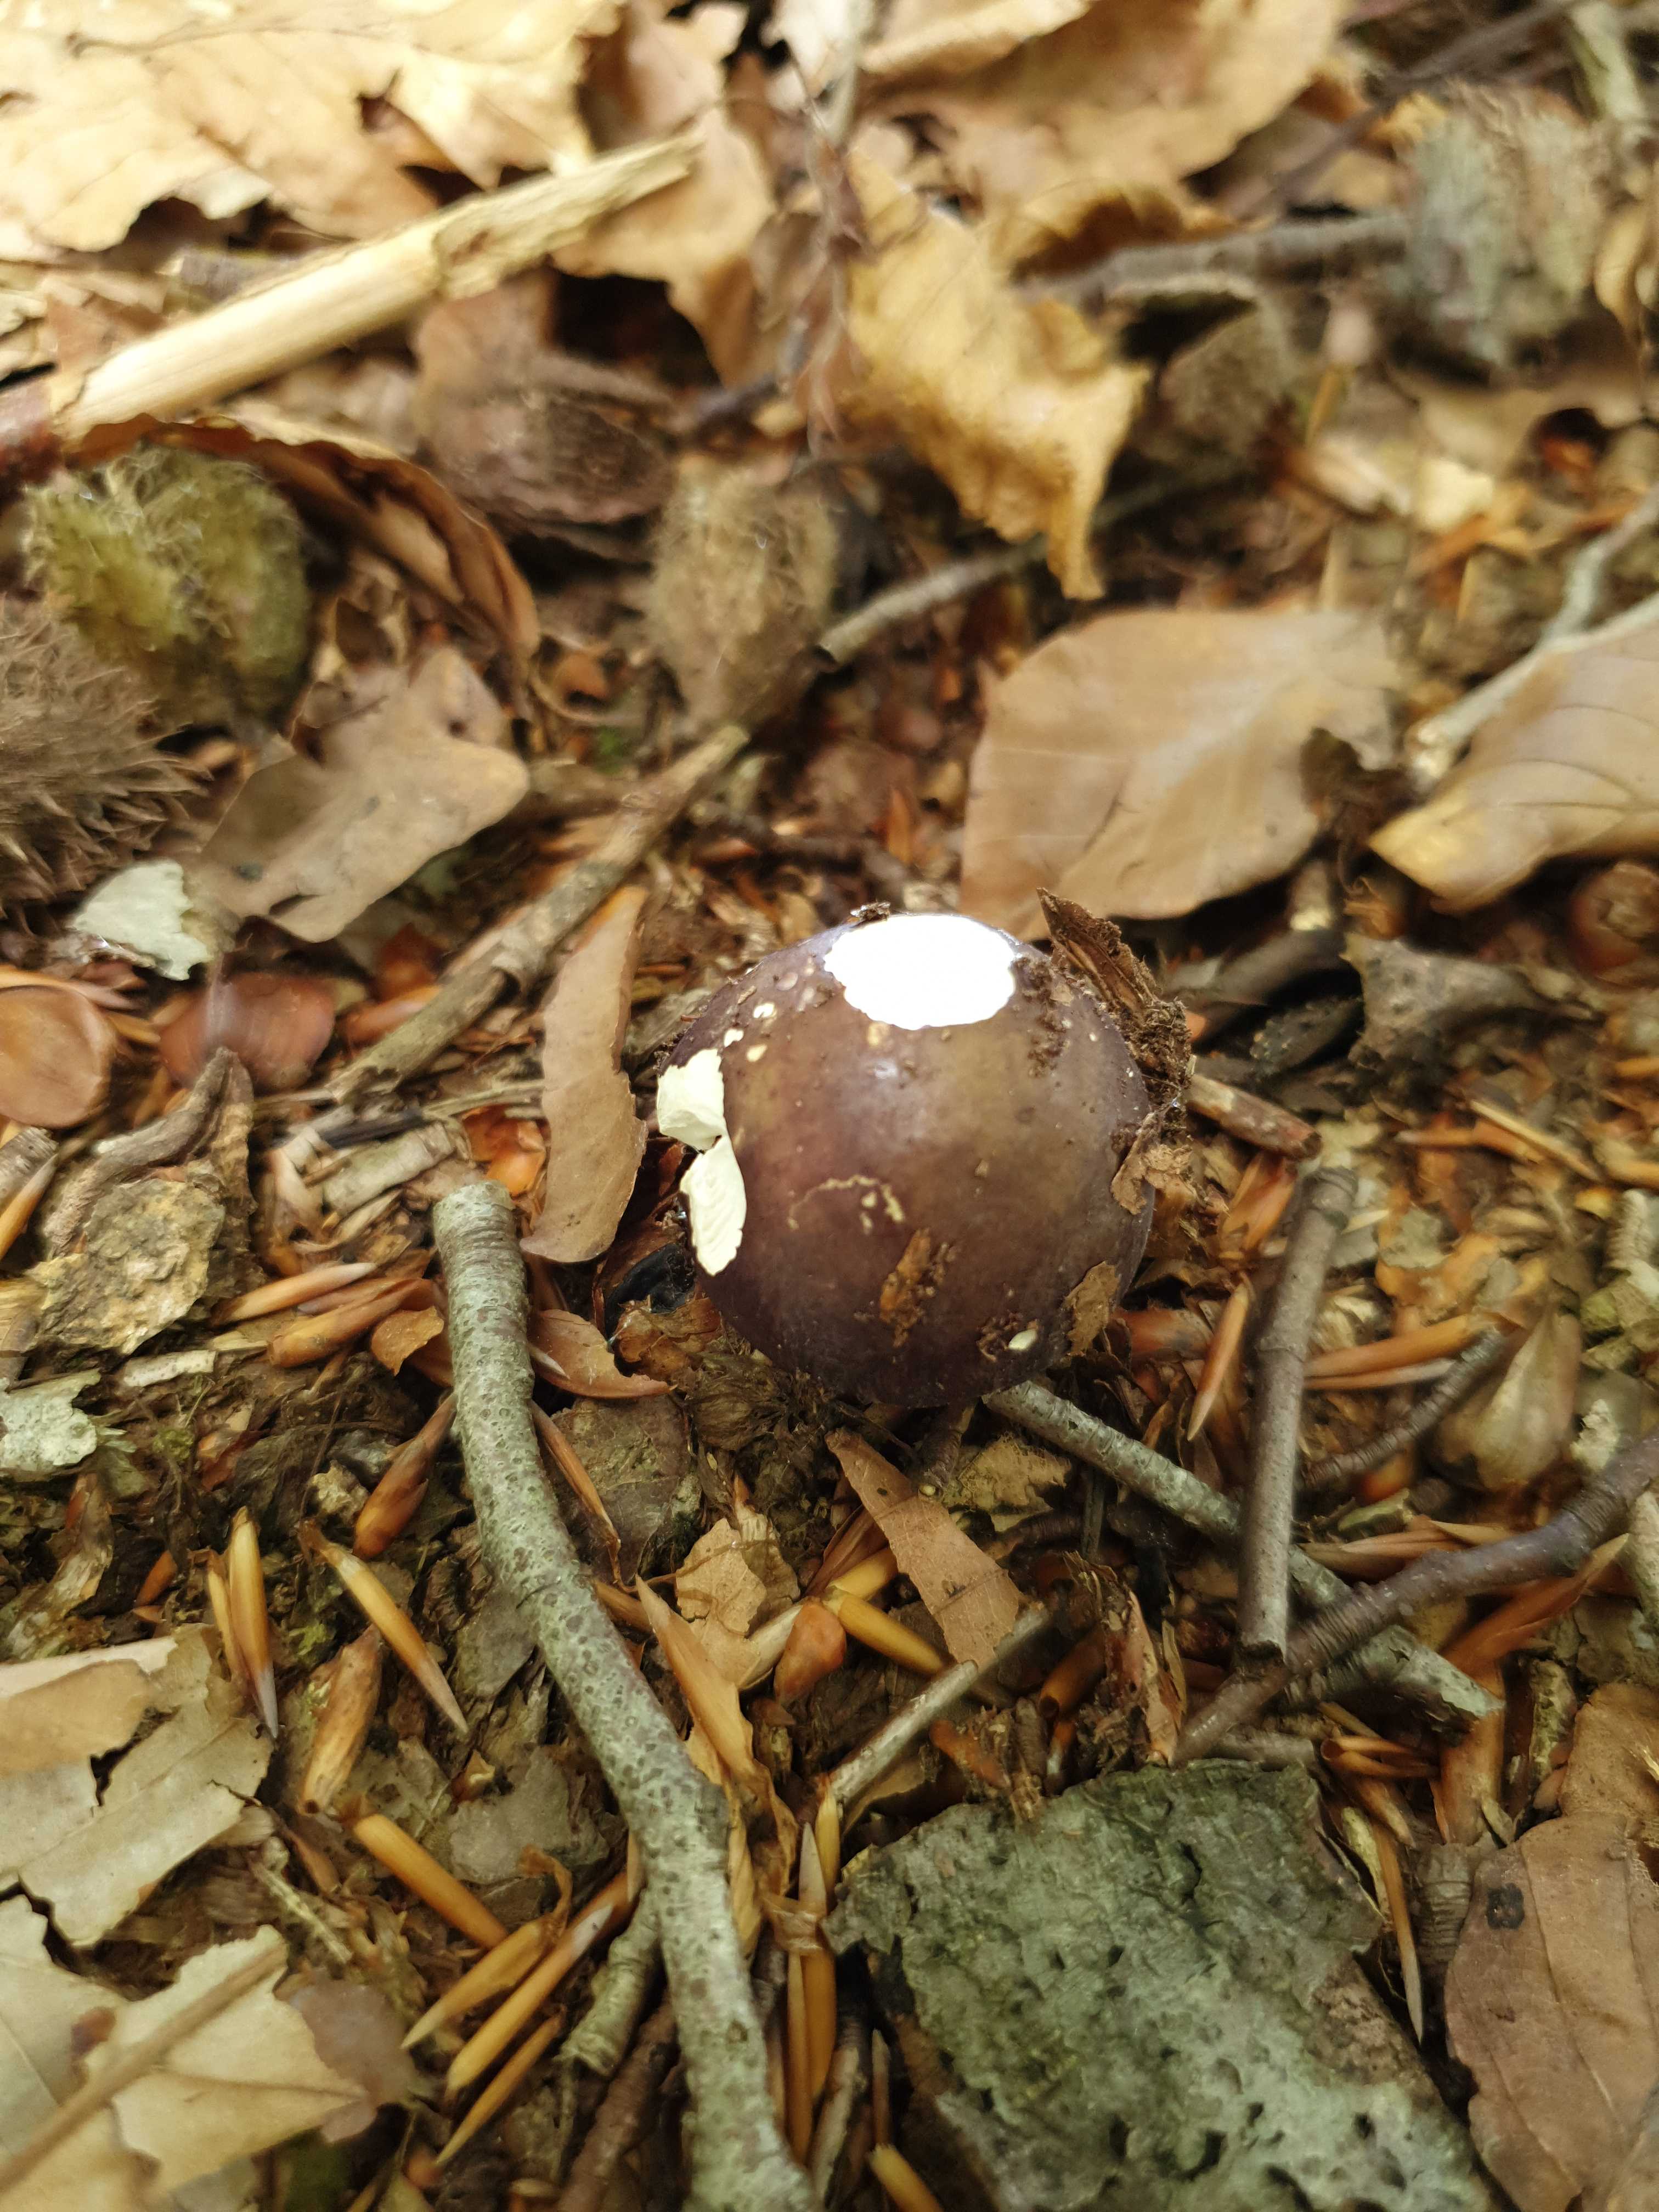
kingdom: Fungi
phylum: Basidiomycota
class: Agaricomycetes
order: Russulales
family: Russulaceae
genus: Russula
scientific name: Russula cyanoxantha
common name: broget skørhat
